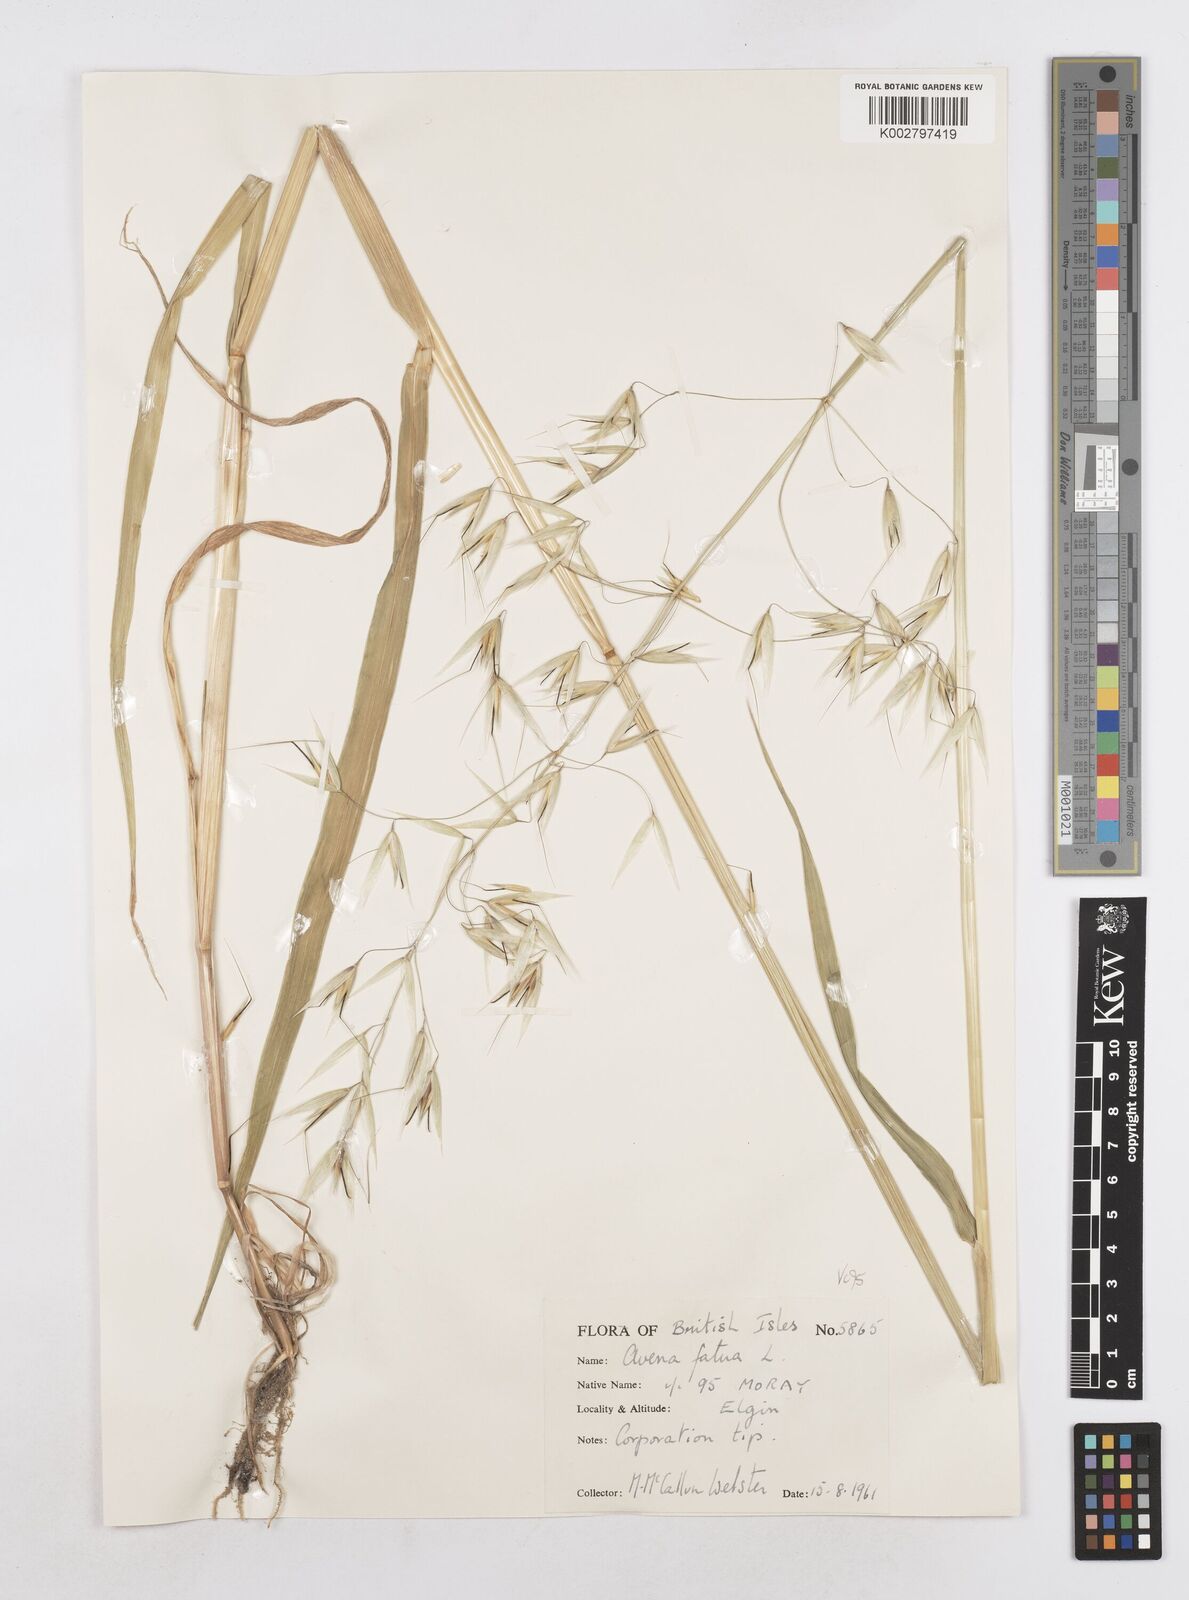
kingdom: Plantae
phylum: Tracheophyta
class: Liliopsida
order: Poales
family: Poaceae
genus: Avena
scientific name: Avena fatua
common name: Wild oat
